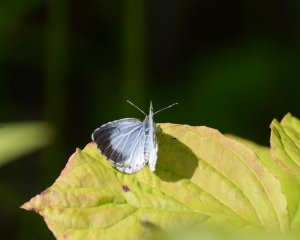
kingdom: Animalia
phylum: Arthropoda
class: Insecta
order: Lepidoptera
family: Lycaenidae
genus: Celastrina
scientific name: Celastrina lucia
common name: Northern Spring Azure
